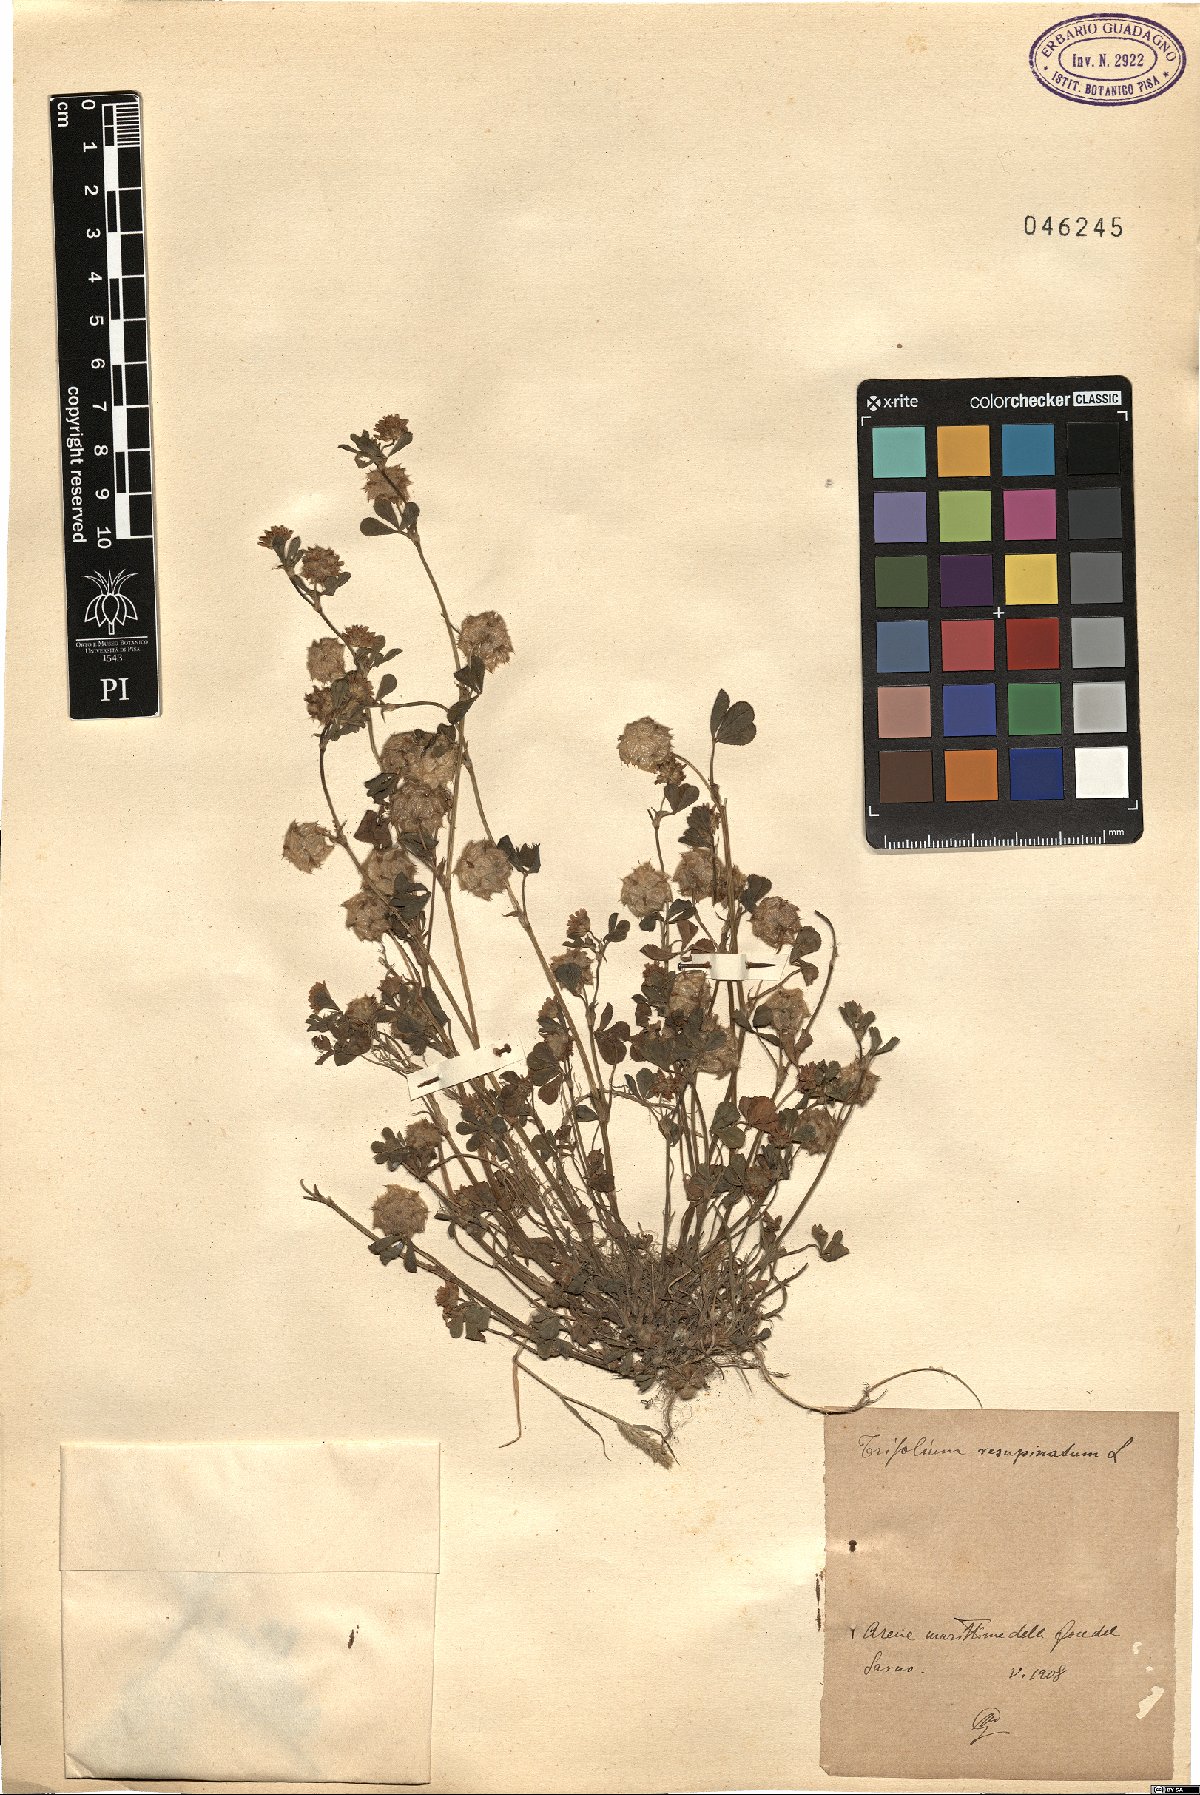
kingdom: Plantae
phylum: Tracheophyta
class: Magnoliopsida
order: Fabales
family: Fabaceae
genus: Trifolium
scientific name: Trifolium resupinatum
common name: Reversed clover
